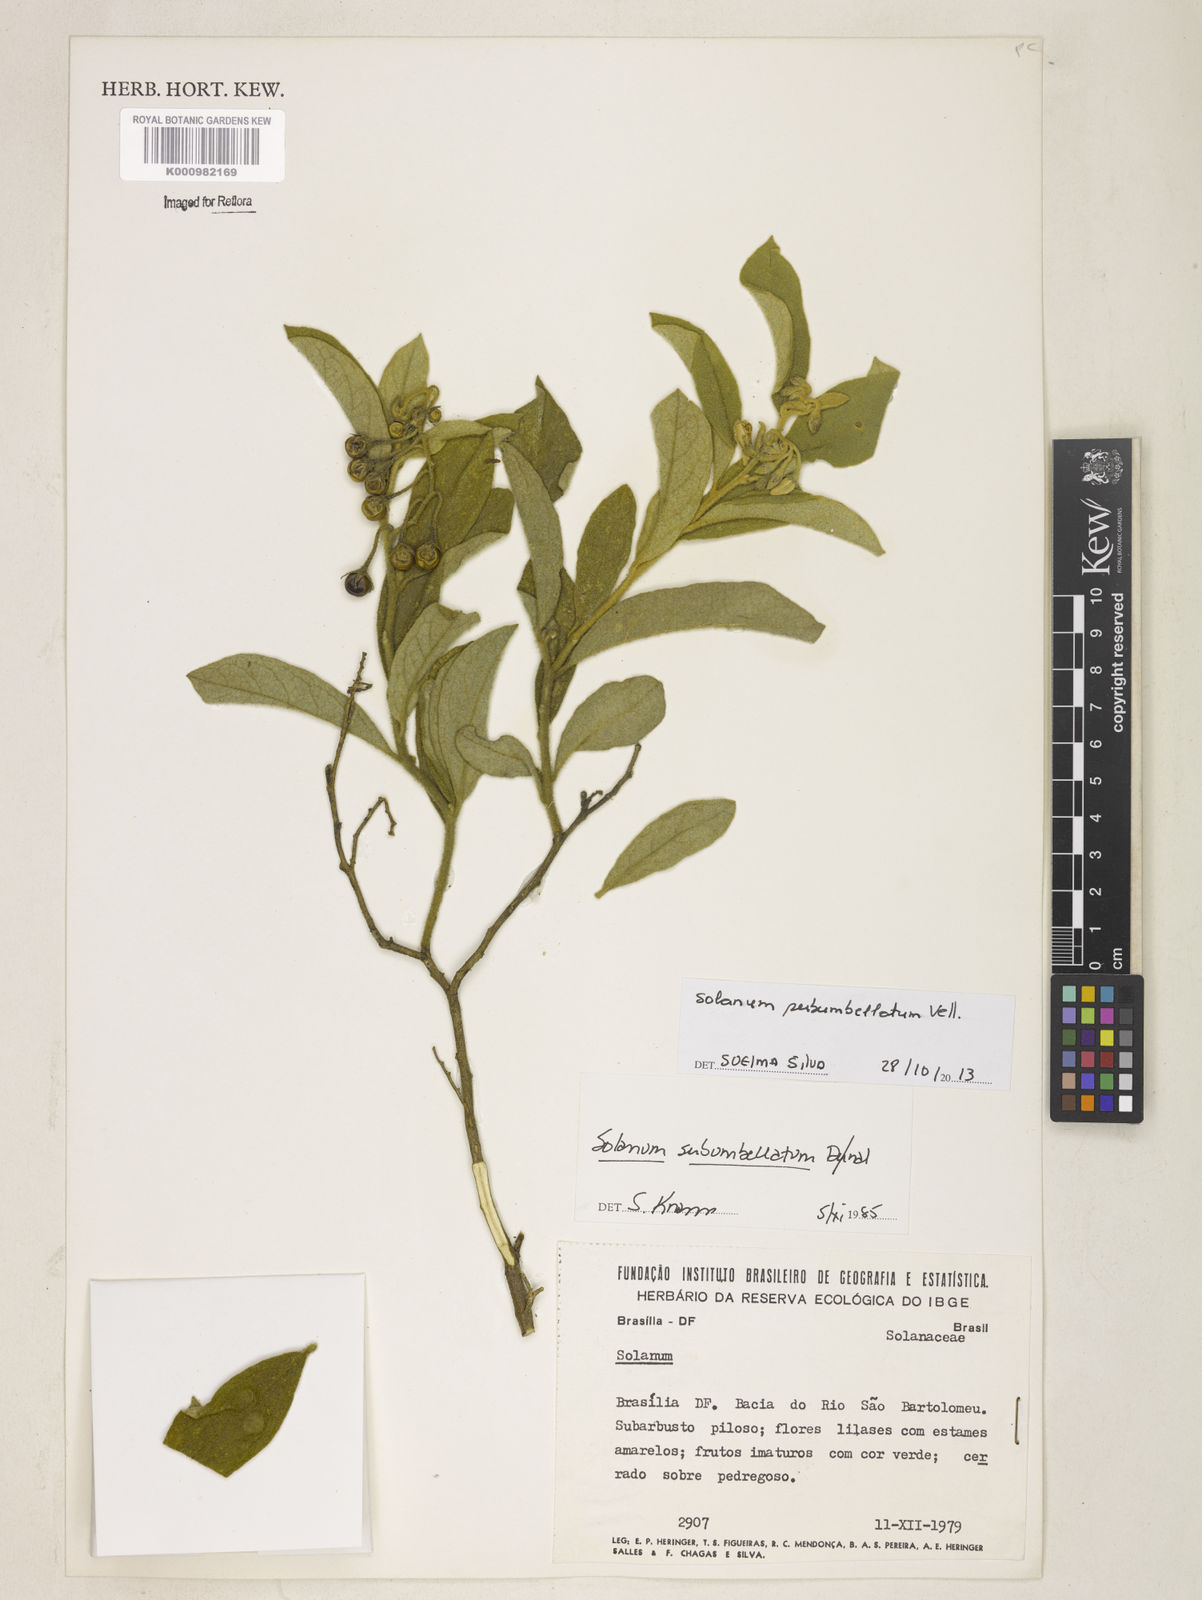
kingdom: Plantae
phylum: Tracheophyta
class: Magnoliopsida
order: Solanales
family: Solanaceae
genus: Solanum
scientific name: Solanum subumbellatum
